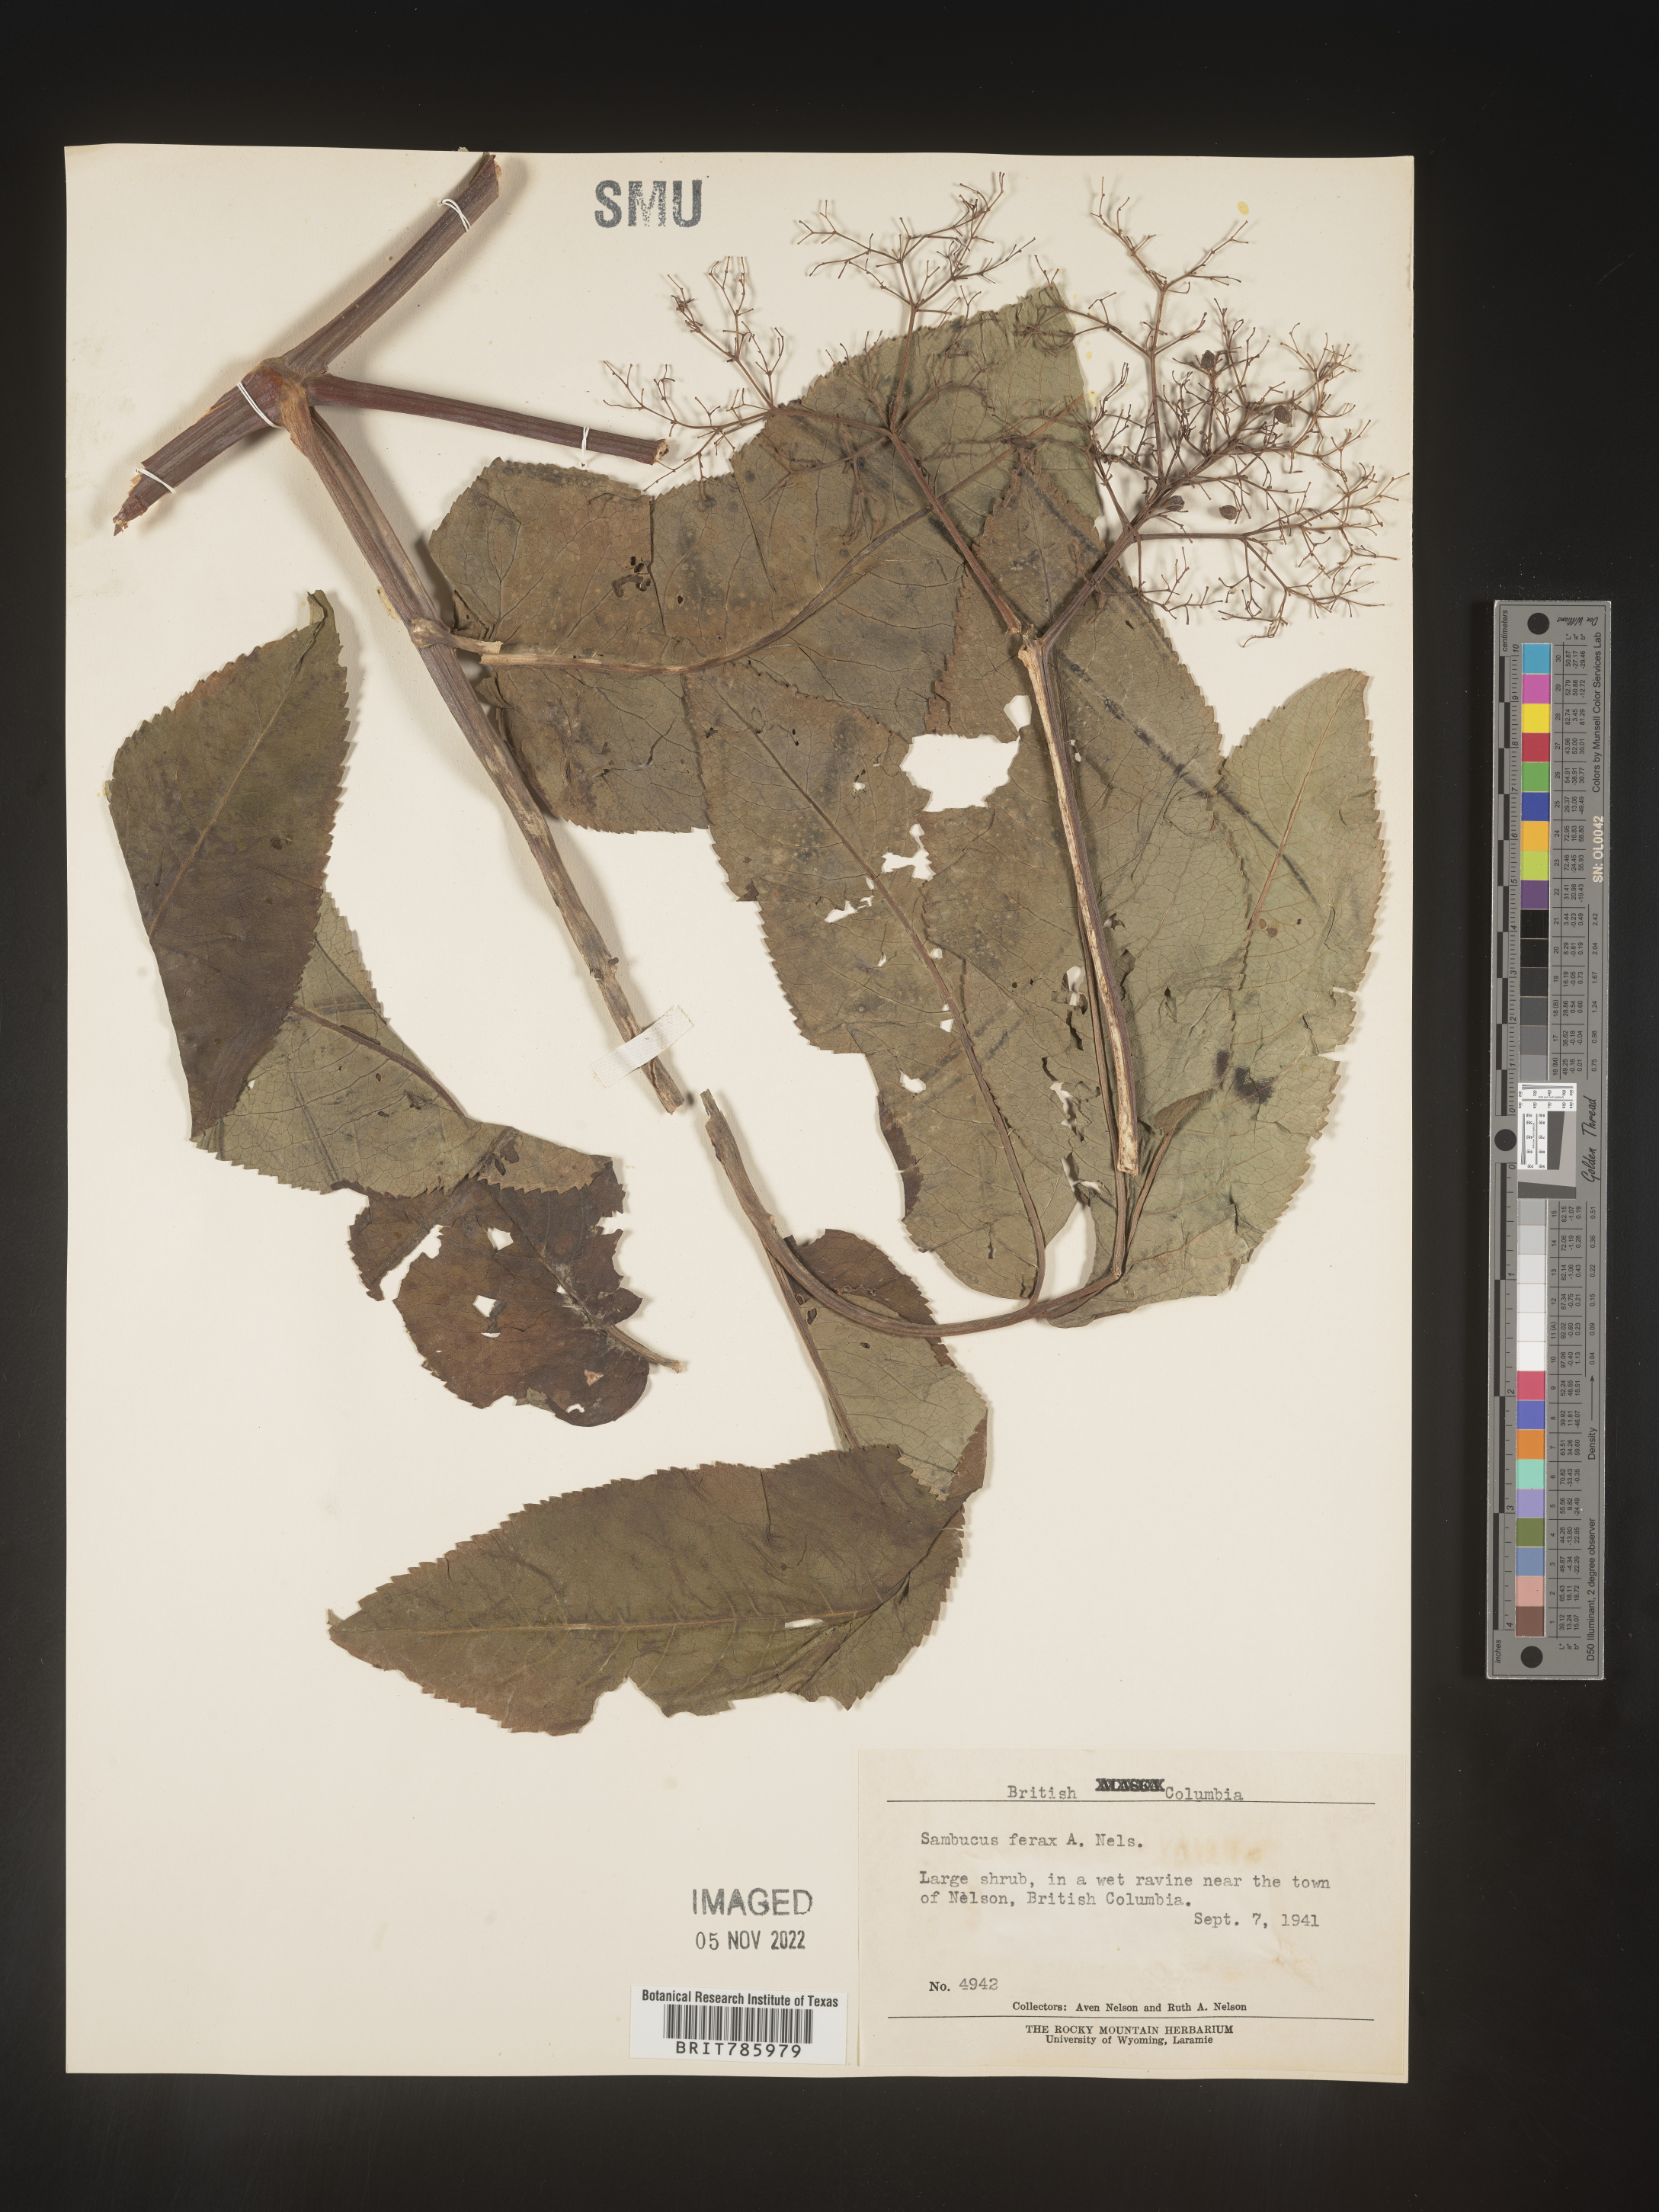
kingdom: Plantae
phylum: Tracheophyta
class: Magnoliopsida
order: Dipsacales
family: Viburnaceae
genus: Sambucus
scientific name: Sambucus
